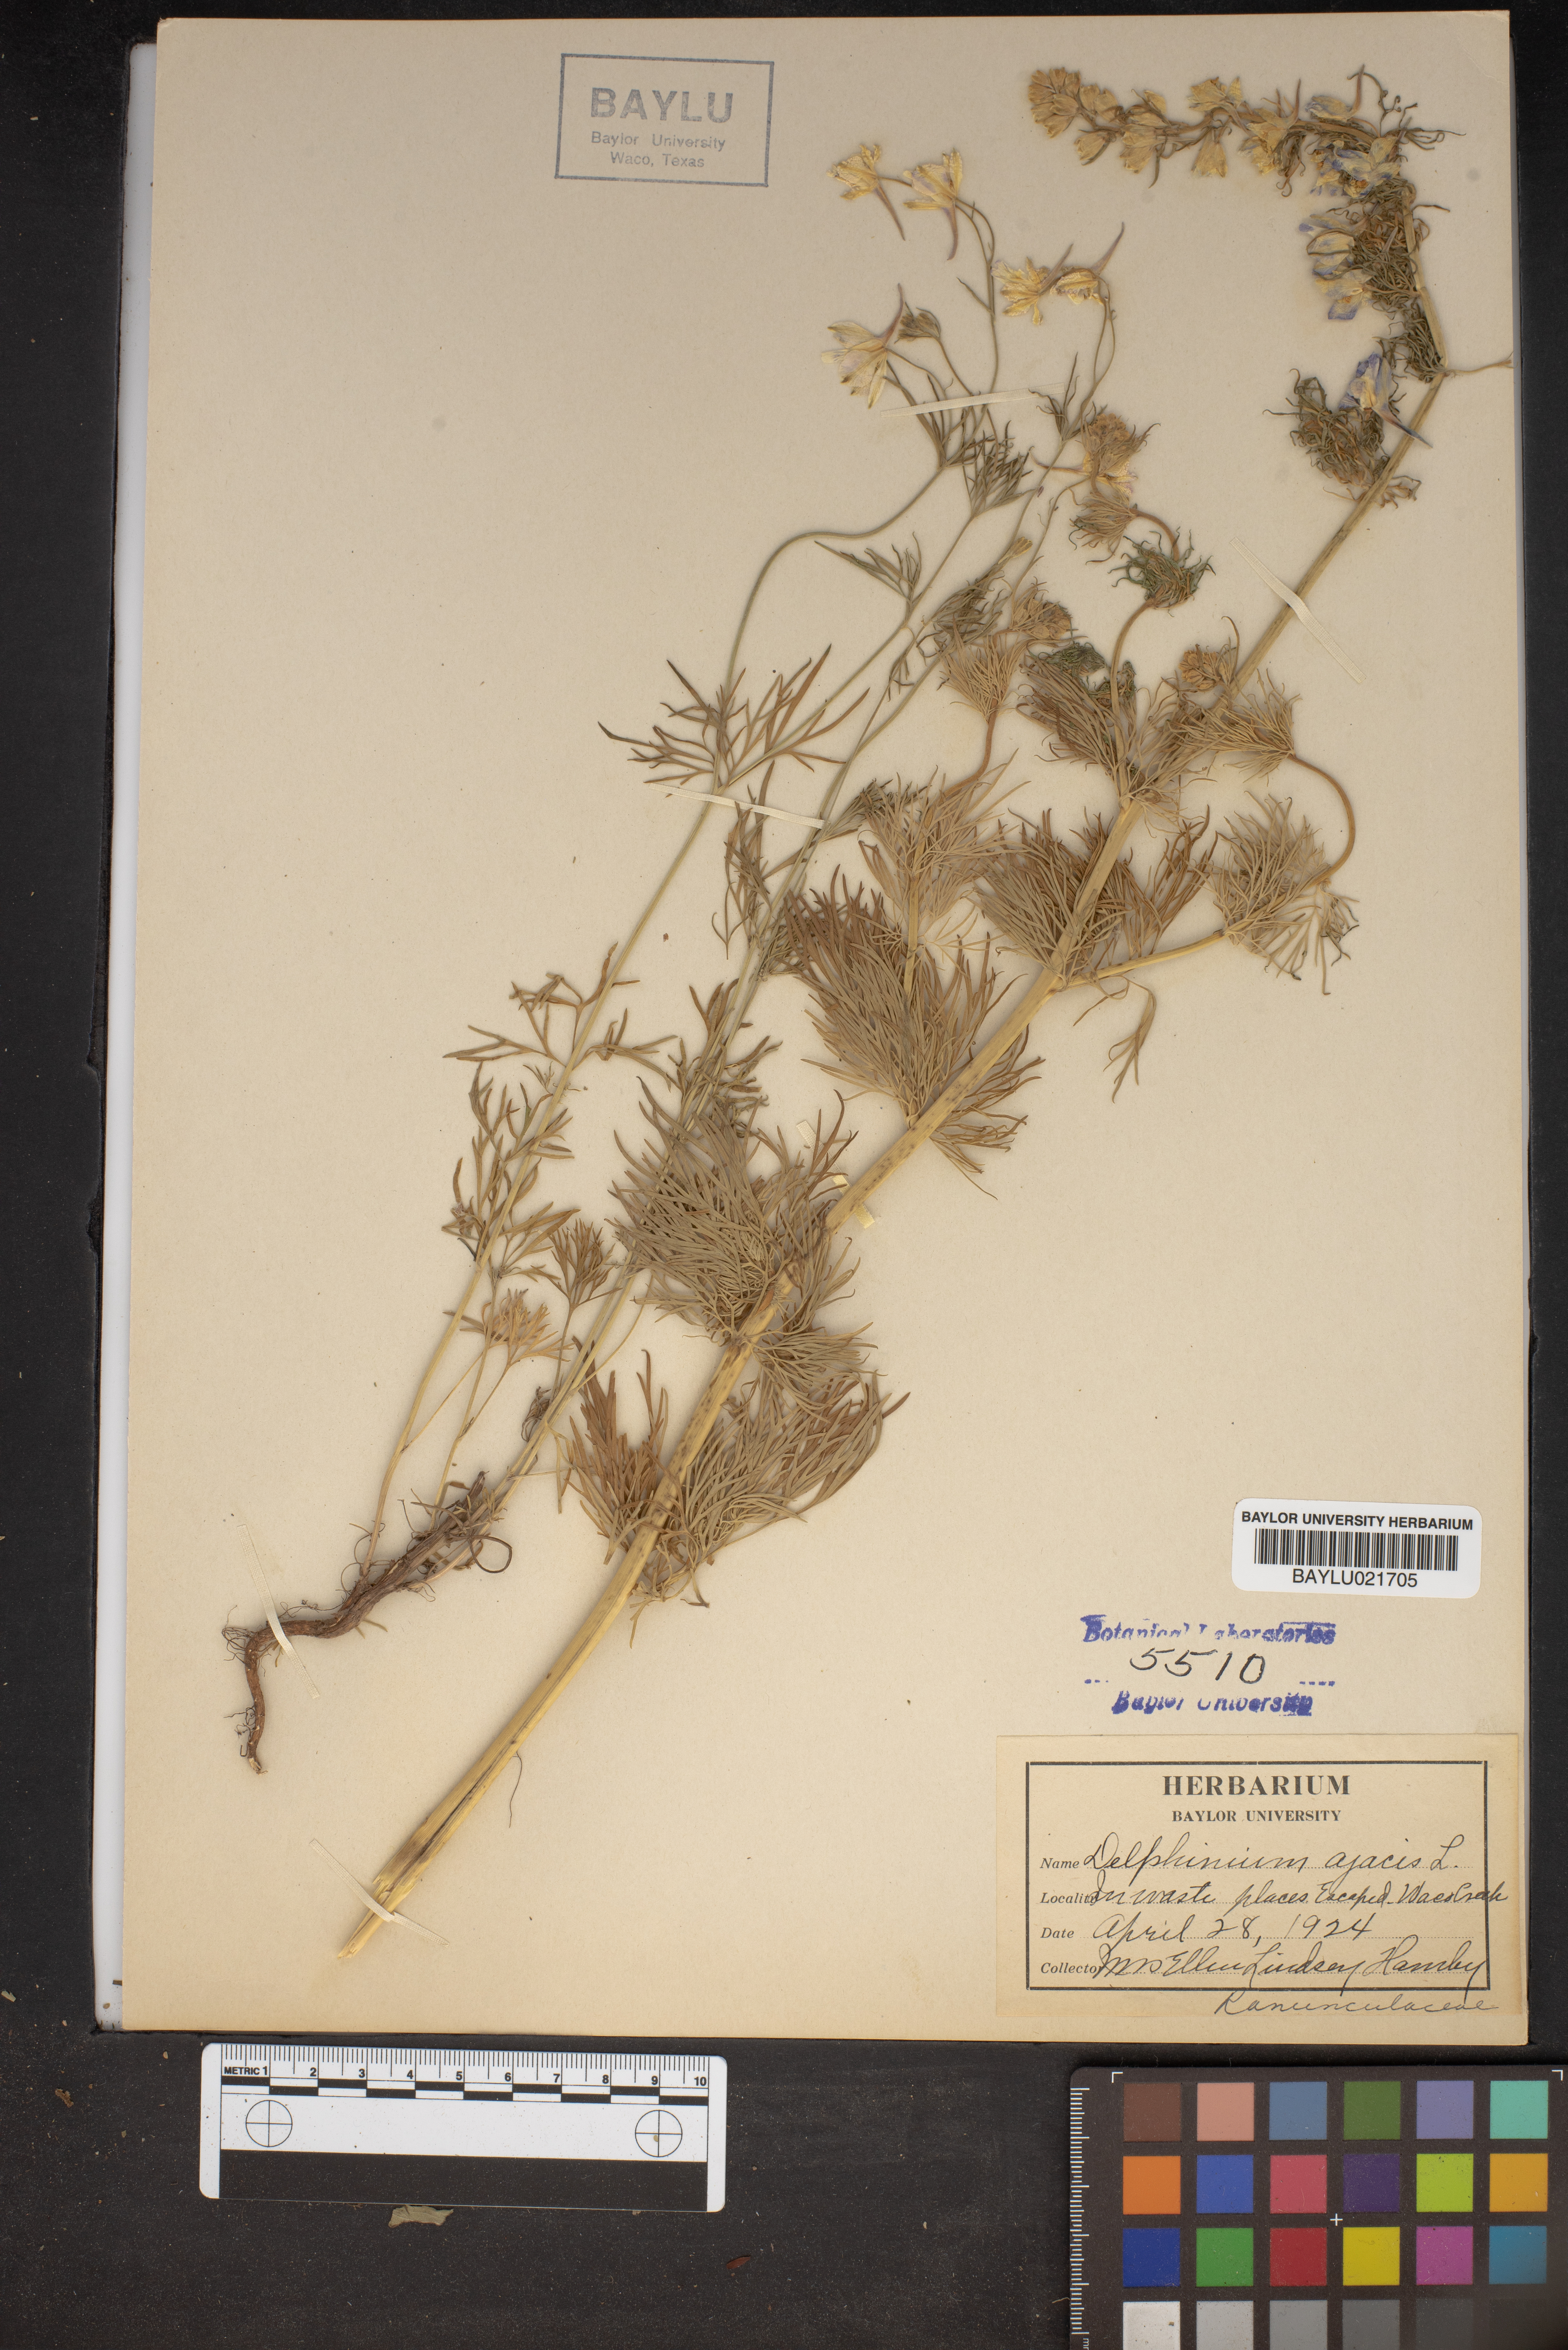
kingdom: Plantae
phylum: Tracheophyta
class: Magnoliopsida
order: Ranunculales
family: Ranunculaceae
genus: Delphinium
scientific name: Delphinium ajacis
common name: Doubtful knight's-spur
